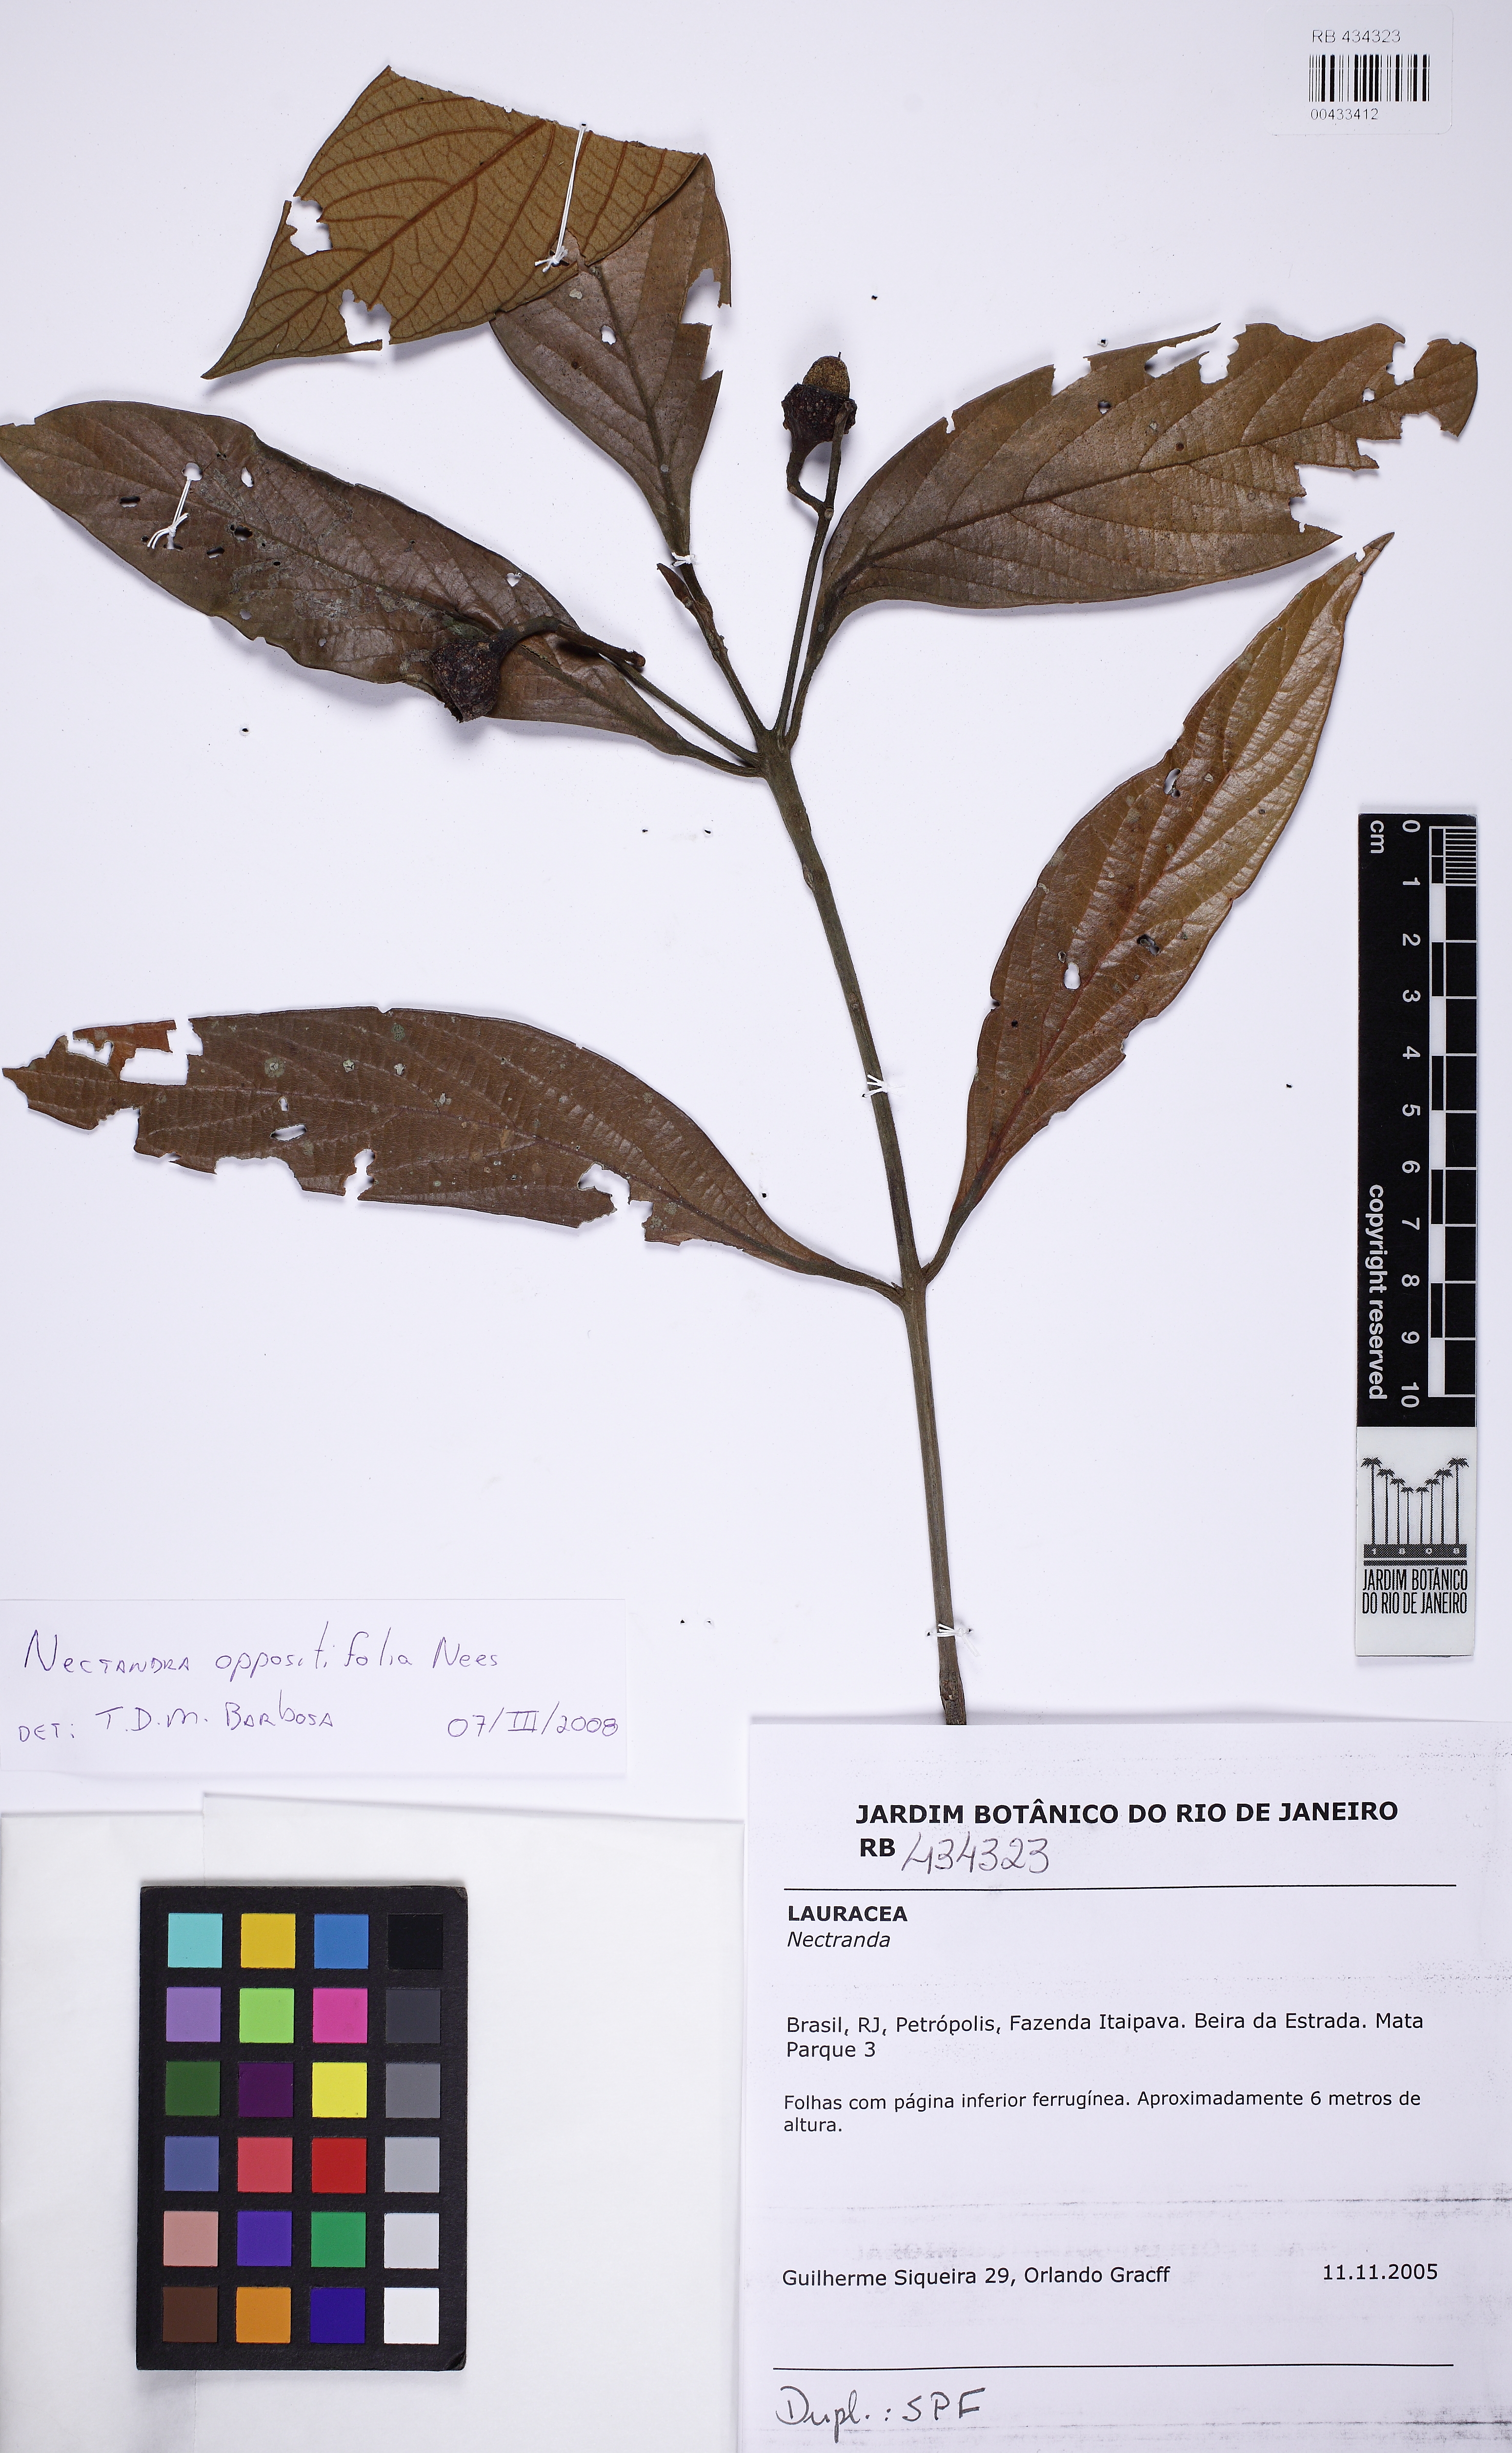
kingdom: Plantae
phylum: Tracheophyta
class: Magnoliopsida
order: Laurales
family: Lauraceae
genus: Nectandra
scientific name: Nectandra oppositifolia
